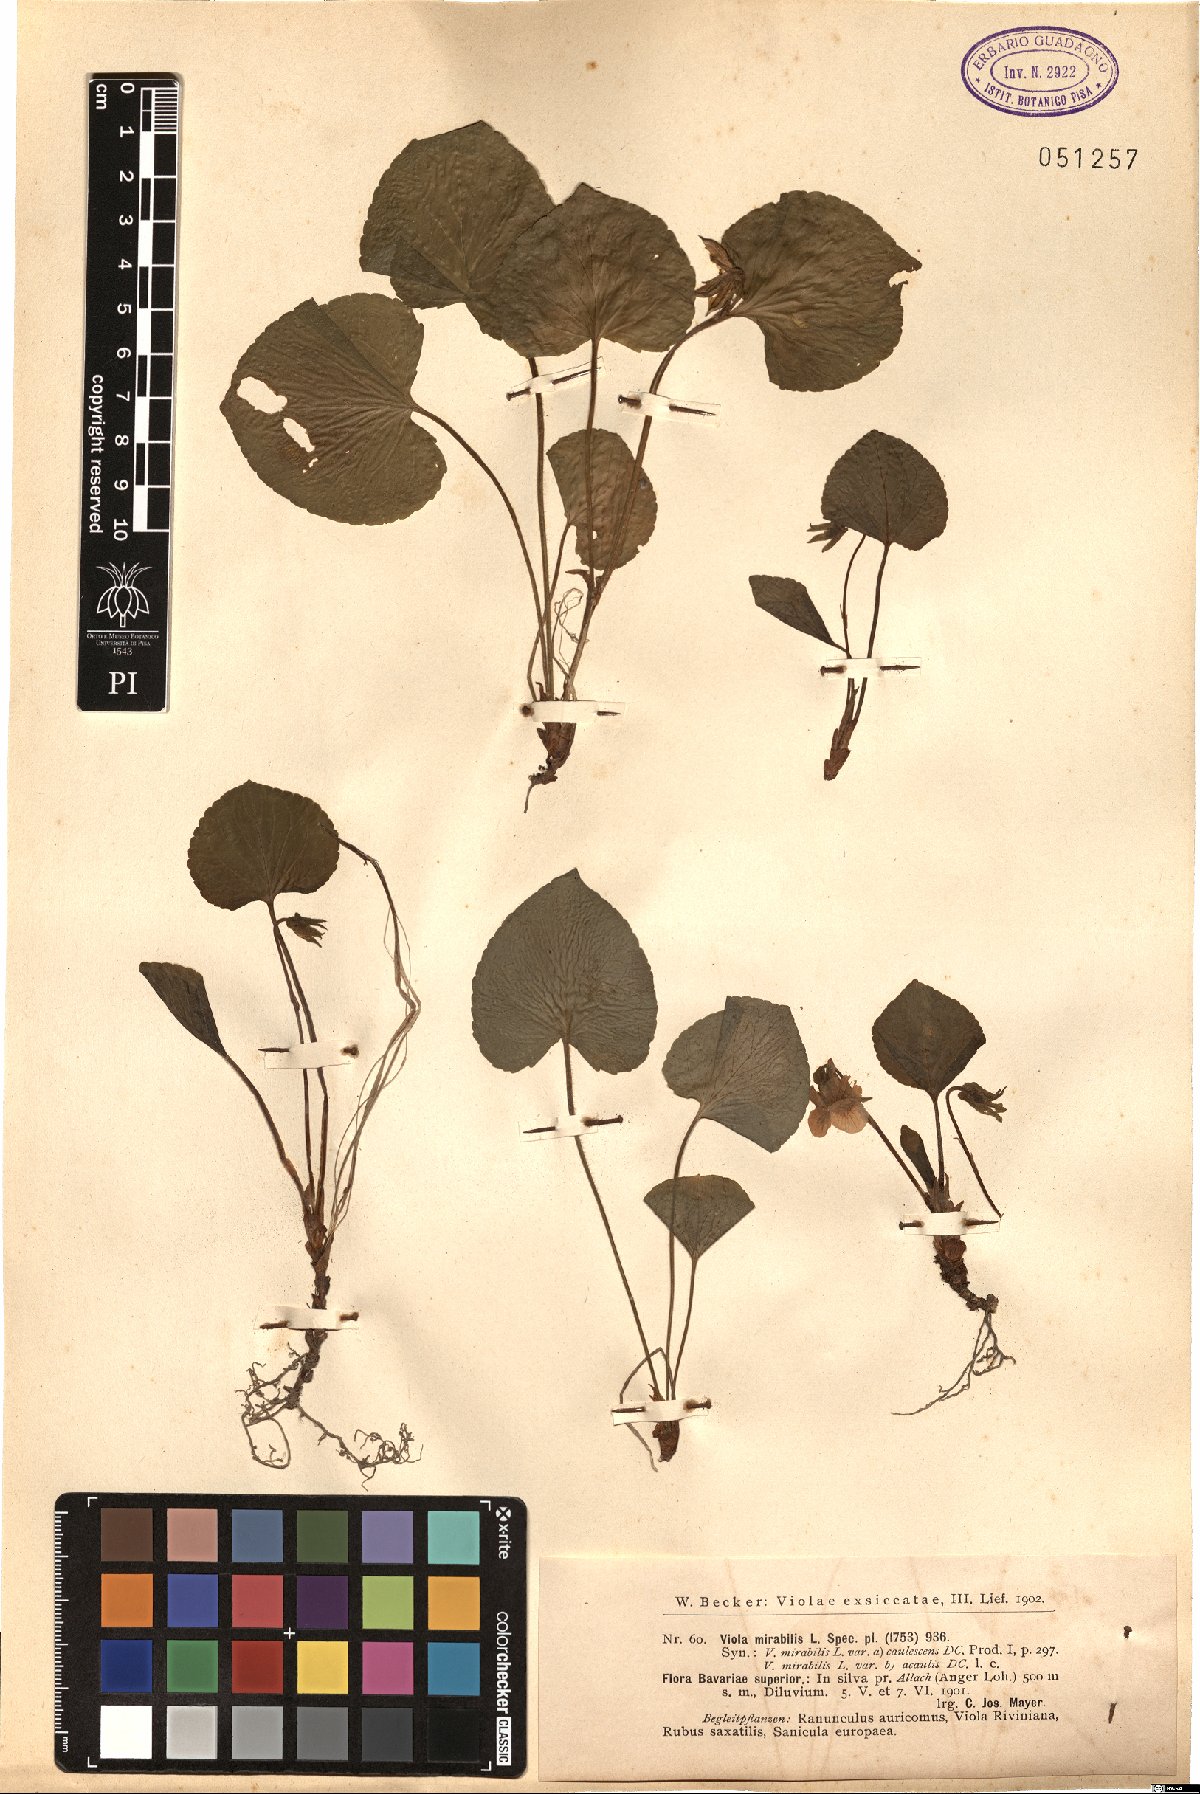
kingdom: Plantae
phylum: Tracheophyta
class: Magnoliopsida
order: Malpighiales
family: Violaceae
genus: Viola
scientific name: Viola mirabilis
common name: Wonder violet
